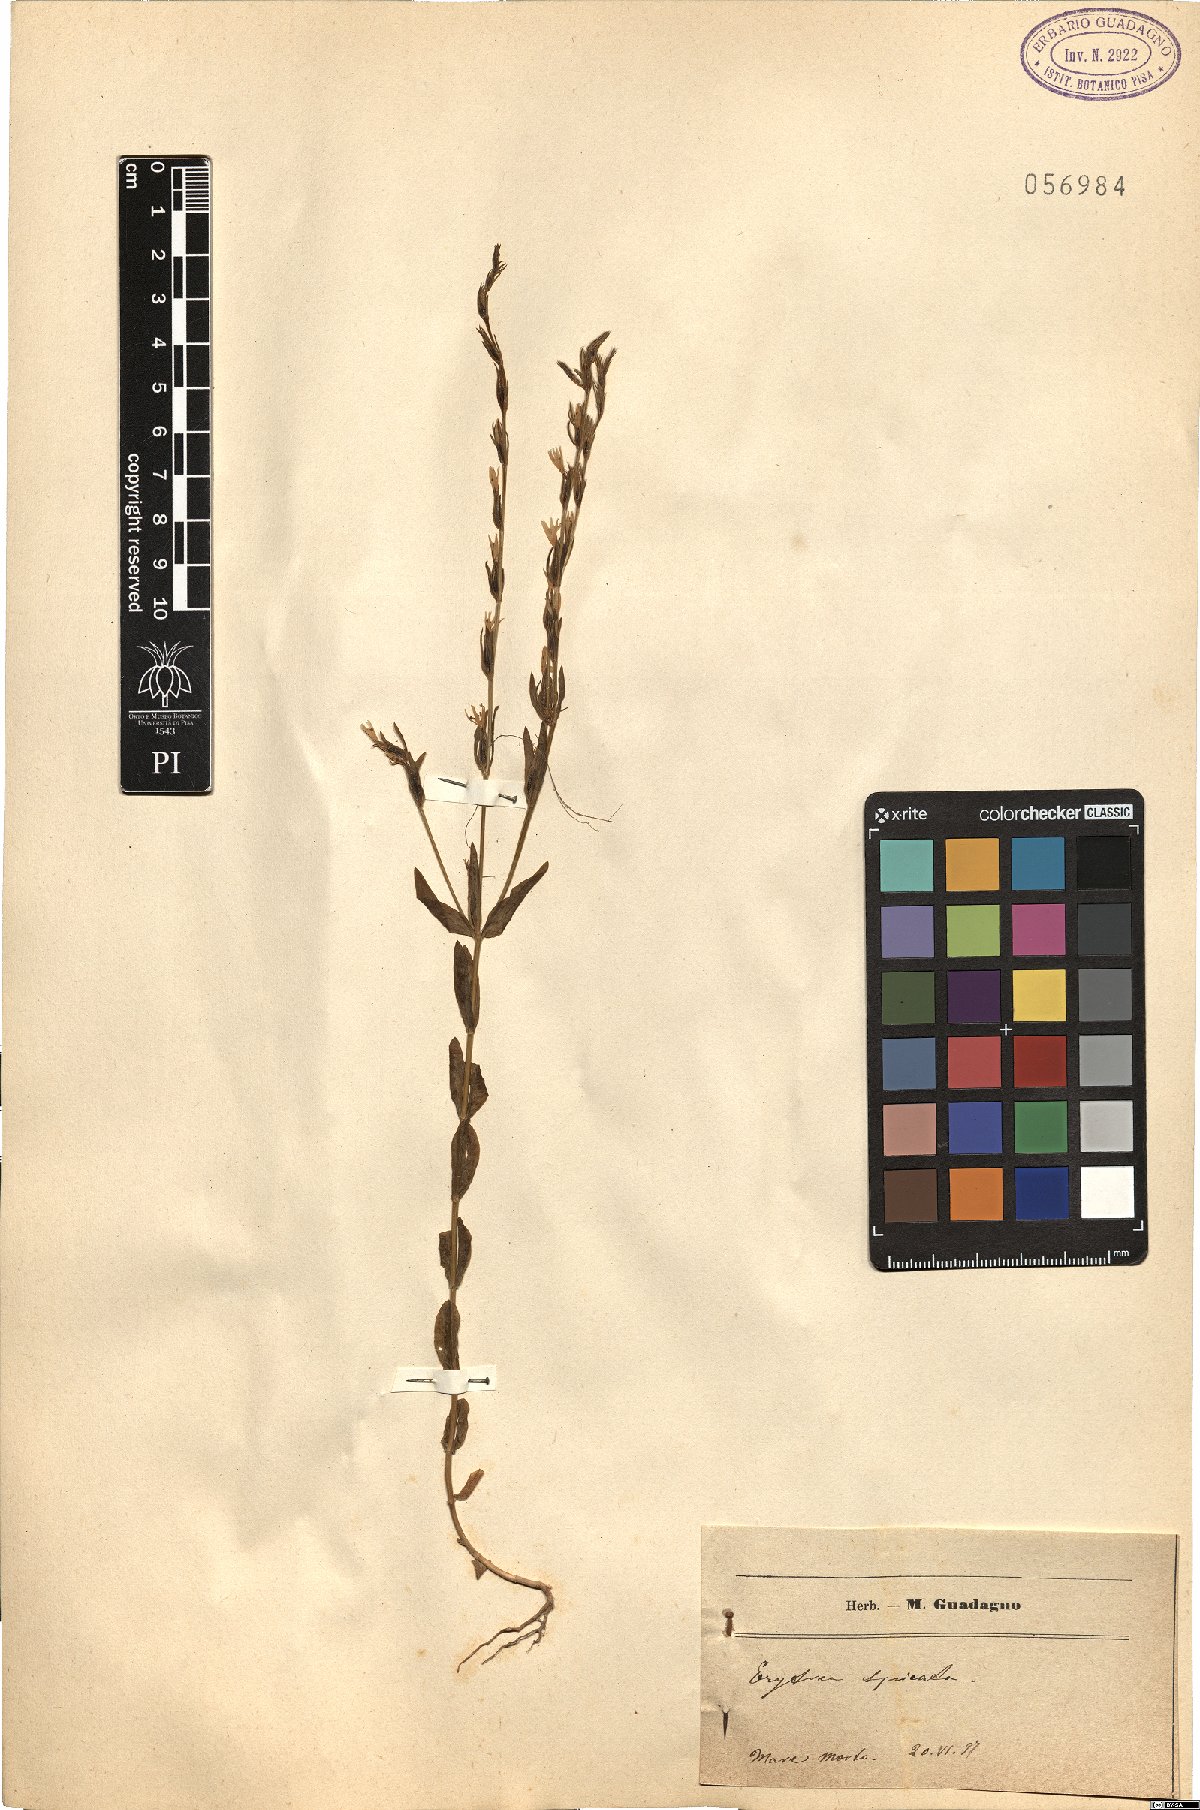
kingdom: Plantae
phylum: Tracheophyta
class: Magnoliopsida
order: Gentianales
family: Gentianaceae
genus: Schenkia
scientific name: Schenkia spicata
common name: Spiked centaury
